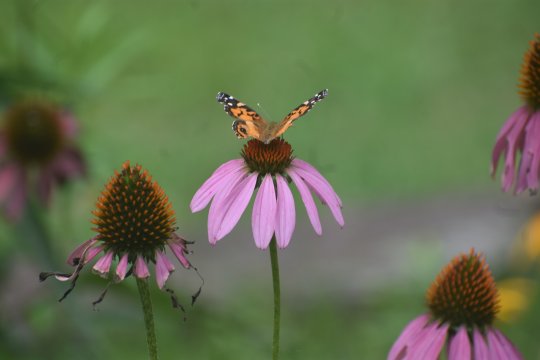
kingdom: Animalia
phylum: Arthropoda
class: Insecta
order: Lepidoptera
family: Nymphalidae
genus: Vanessa
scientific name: Vanessa virginiensis
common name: American Lady
